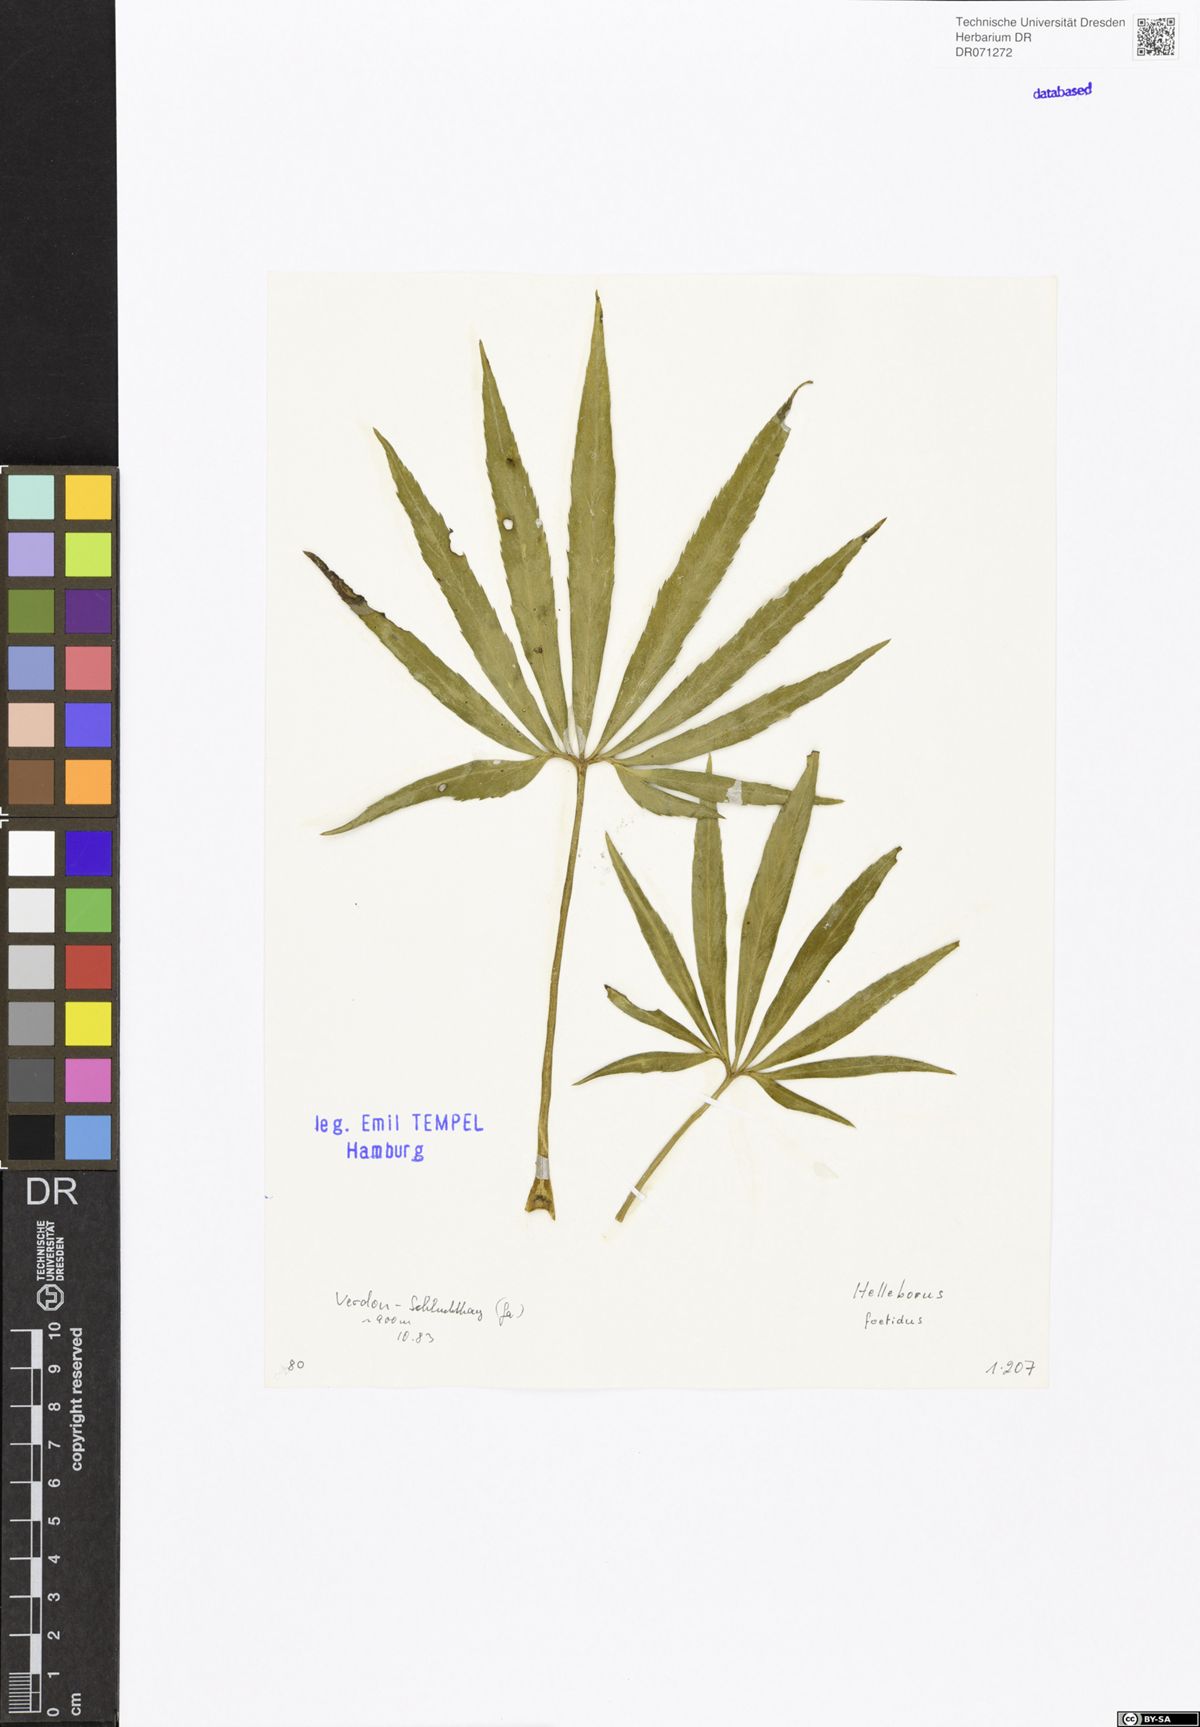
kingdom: Plantae
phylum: Tracheophyta
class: Magnoliopsida
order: Ranunculales
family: Ranunculaceae
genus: Helleborus
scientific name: Helleborus foetidus
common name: Stinking hellebore
